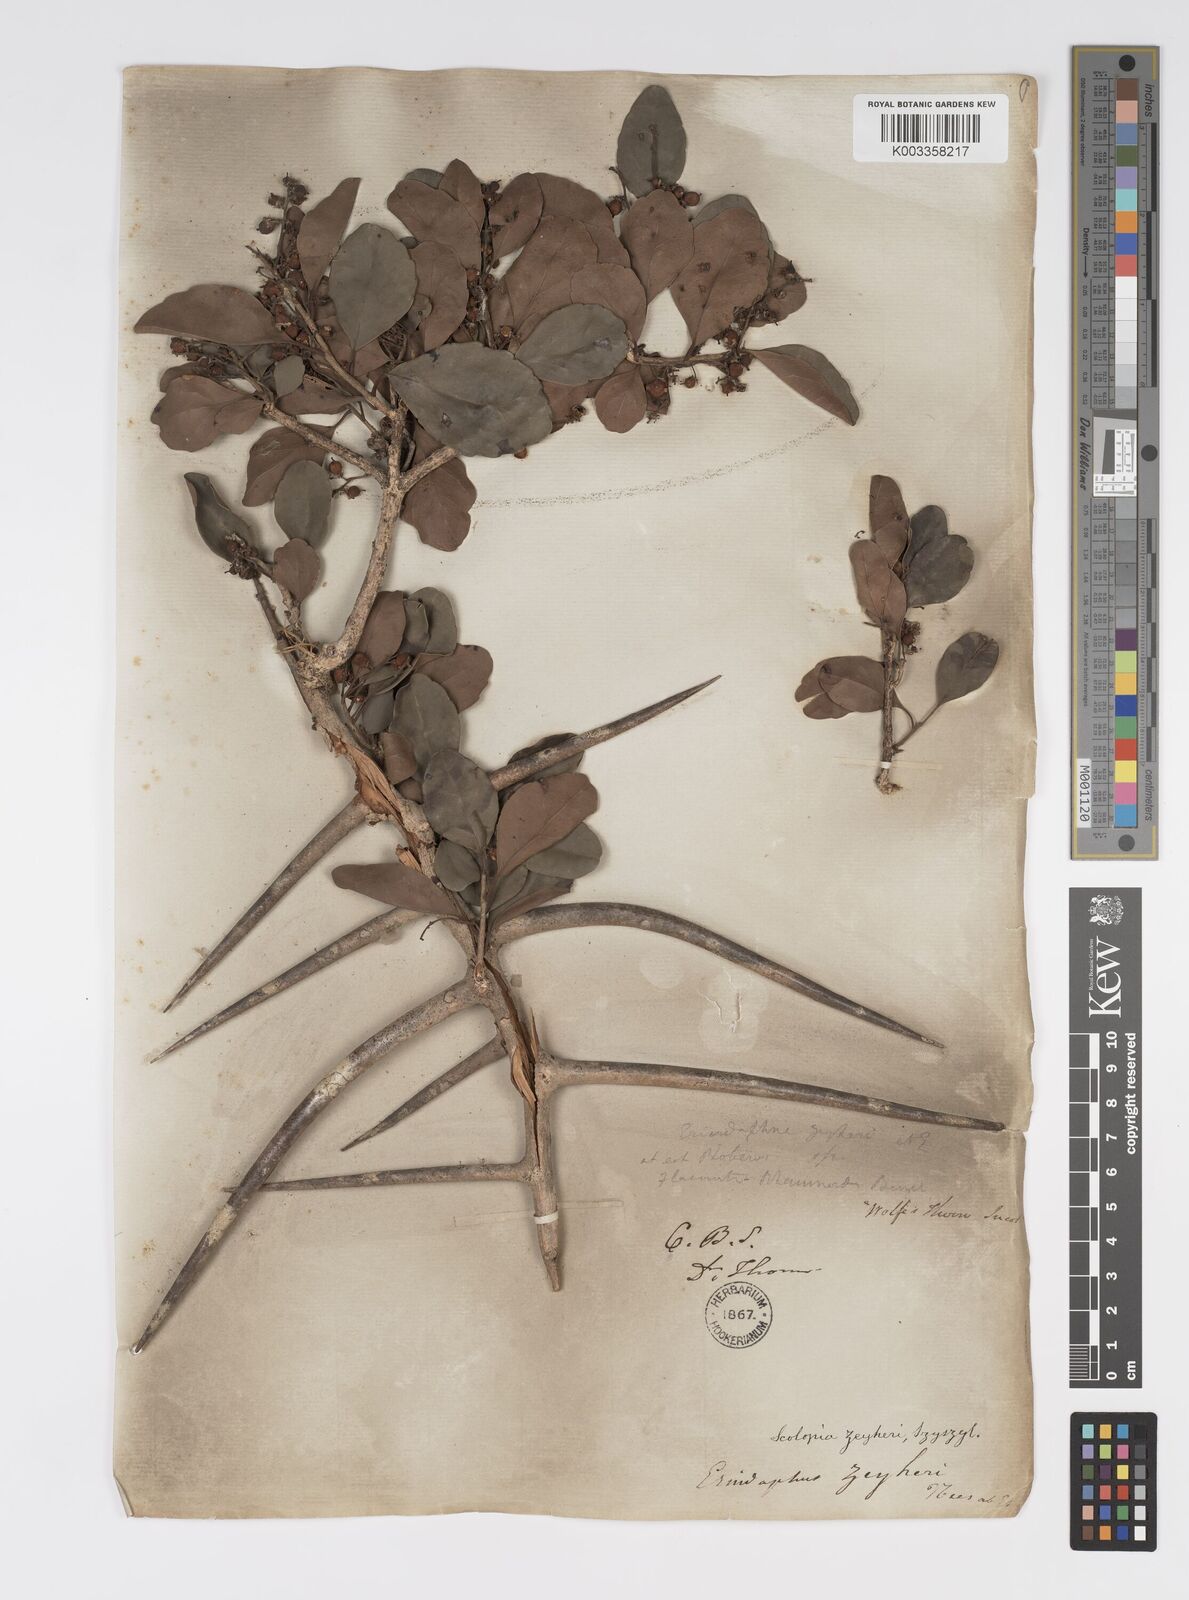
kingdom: Plantae
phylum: Tracheophyta
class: Magnoliopsida
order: Malpighiales
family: Salicaceae
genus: Scolopia
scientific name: Scolopia zeyheri
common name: Thorn pear
